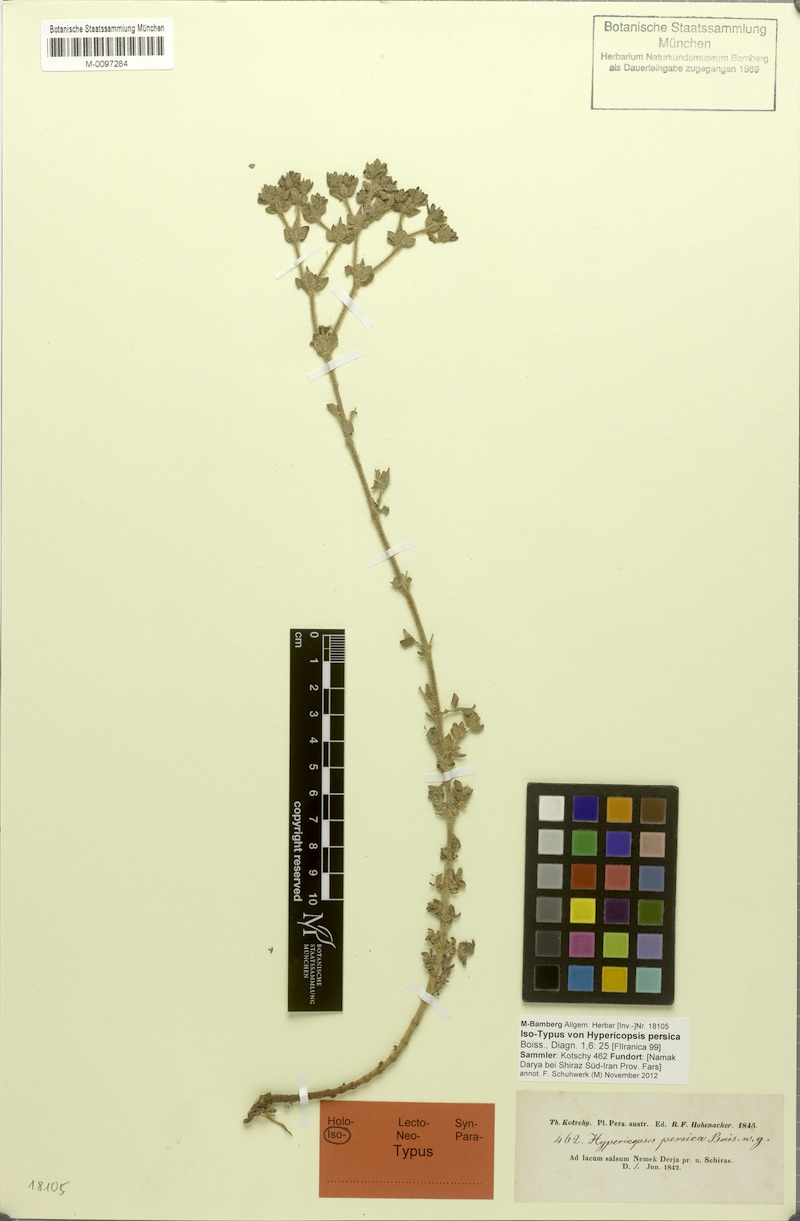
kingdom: Plantae
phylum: Tracheophyta
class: Magnoliopsida
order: Caryophyllales
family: Frankeniaceae
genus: Frankenia
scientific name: Frankenia persica
